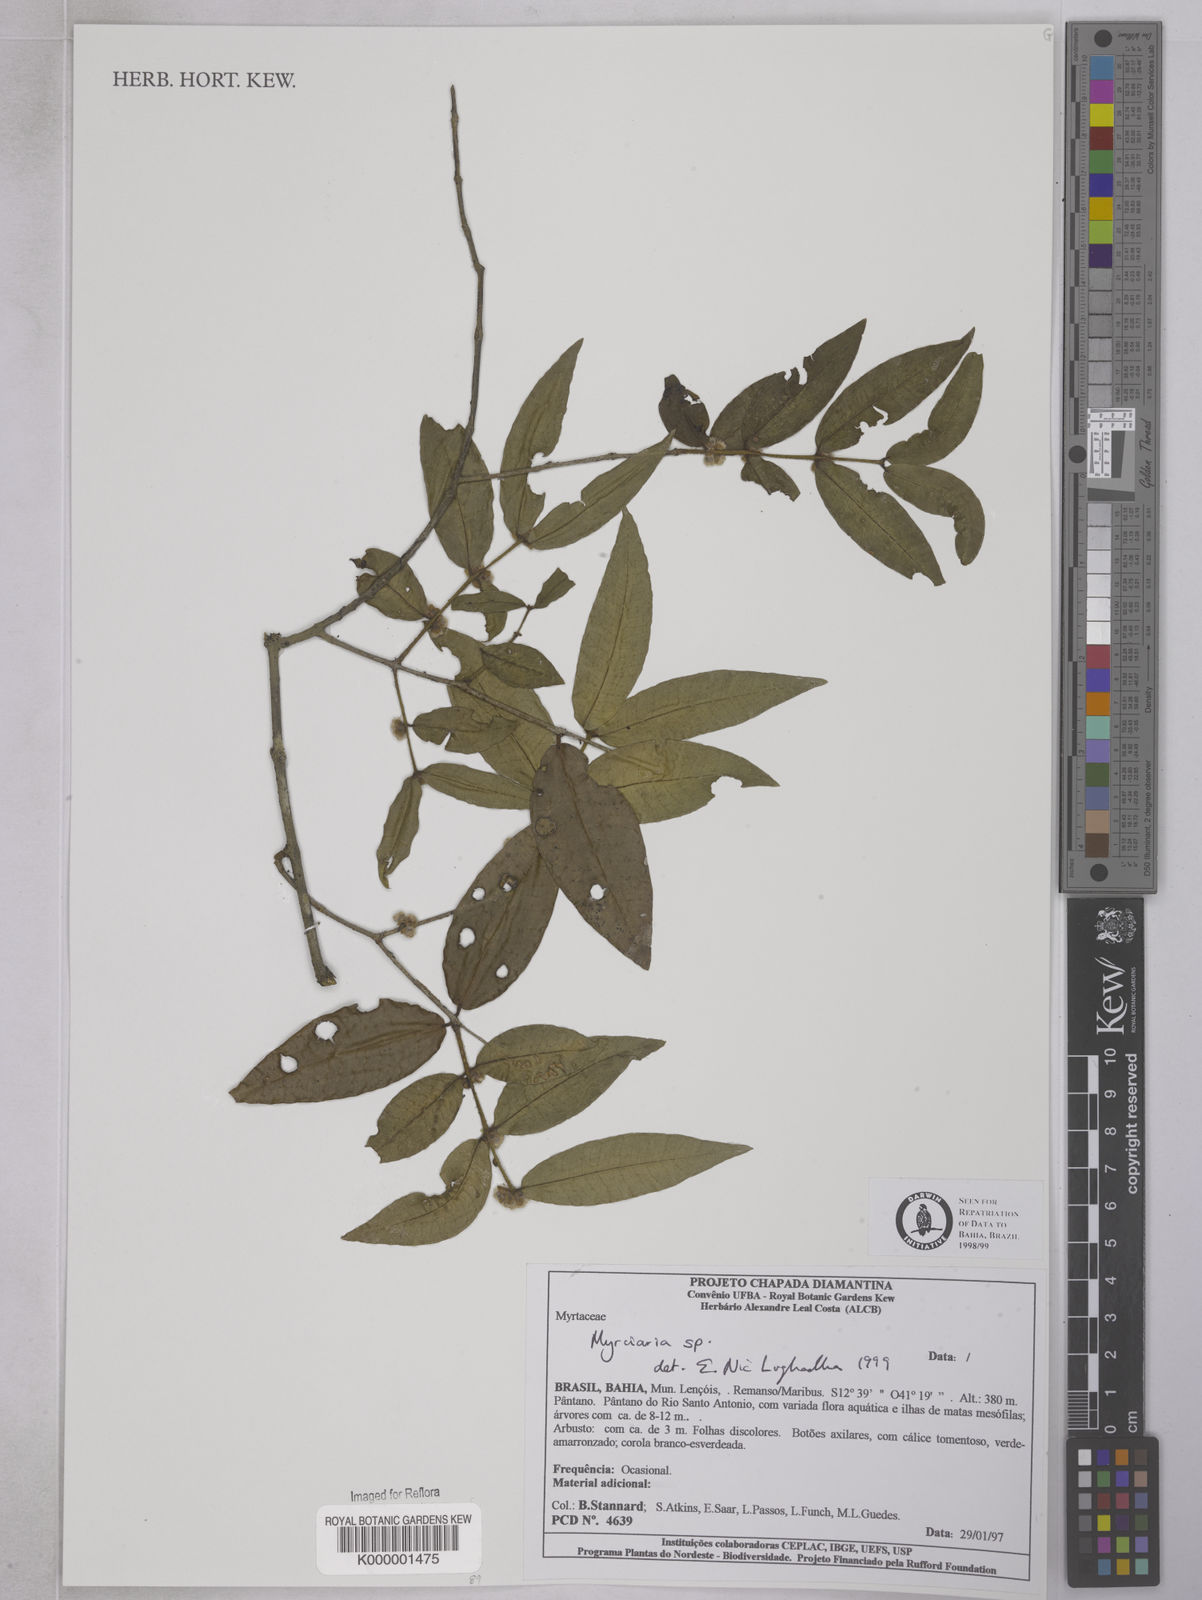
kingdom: Plantae
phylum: Tracheophyta
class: Magnoliopsida
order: Myrtales
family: Myrtaceae
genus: Myrciaria
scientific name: Myrciaria
